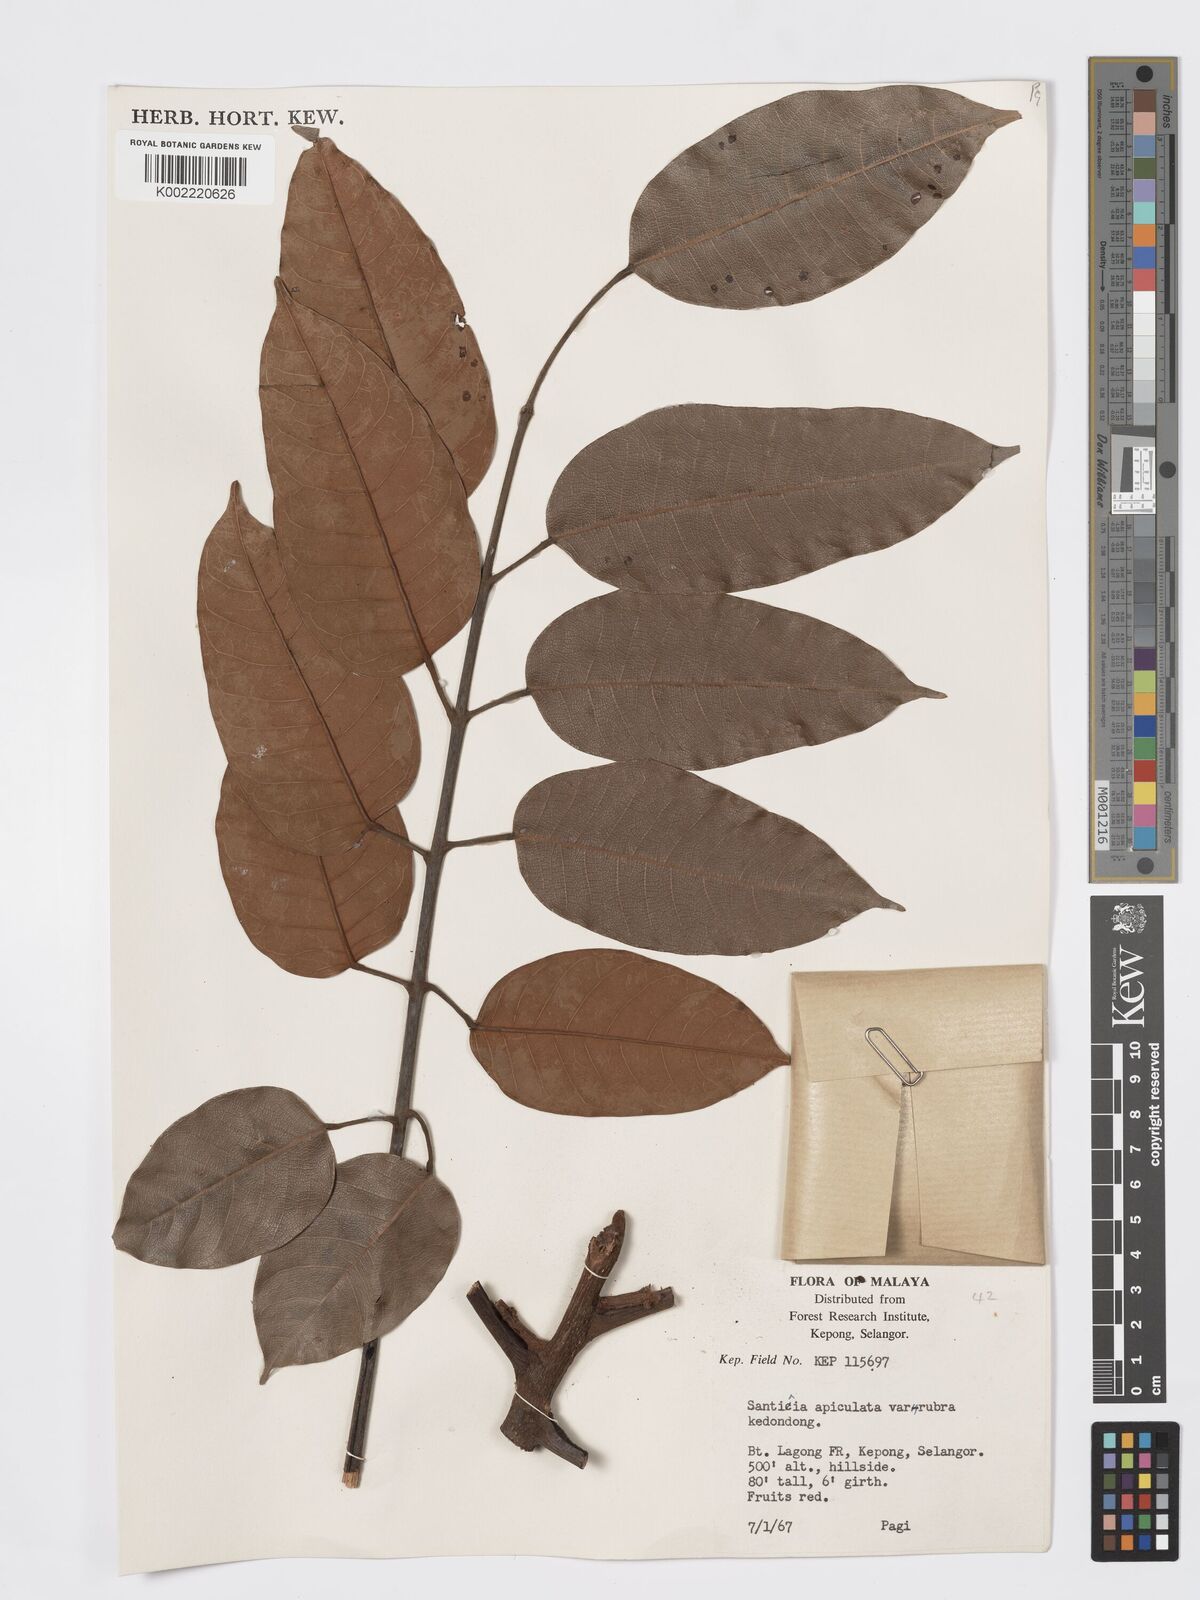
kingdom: Plantae
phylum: Tracheophyta
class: Magnoliopsida
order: Sapindales
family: Burseraceae
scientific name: Burseraceae
